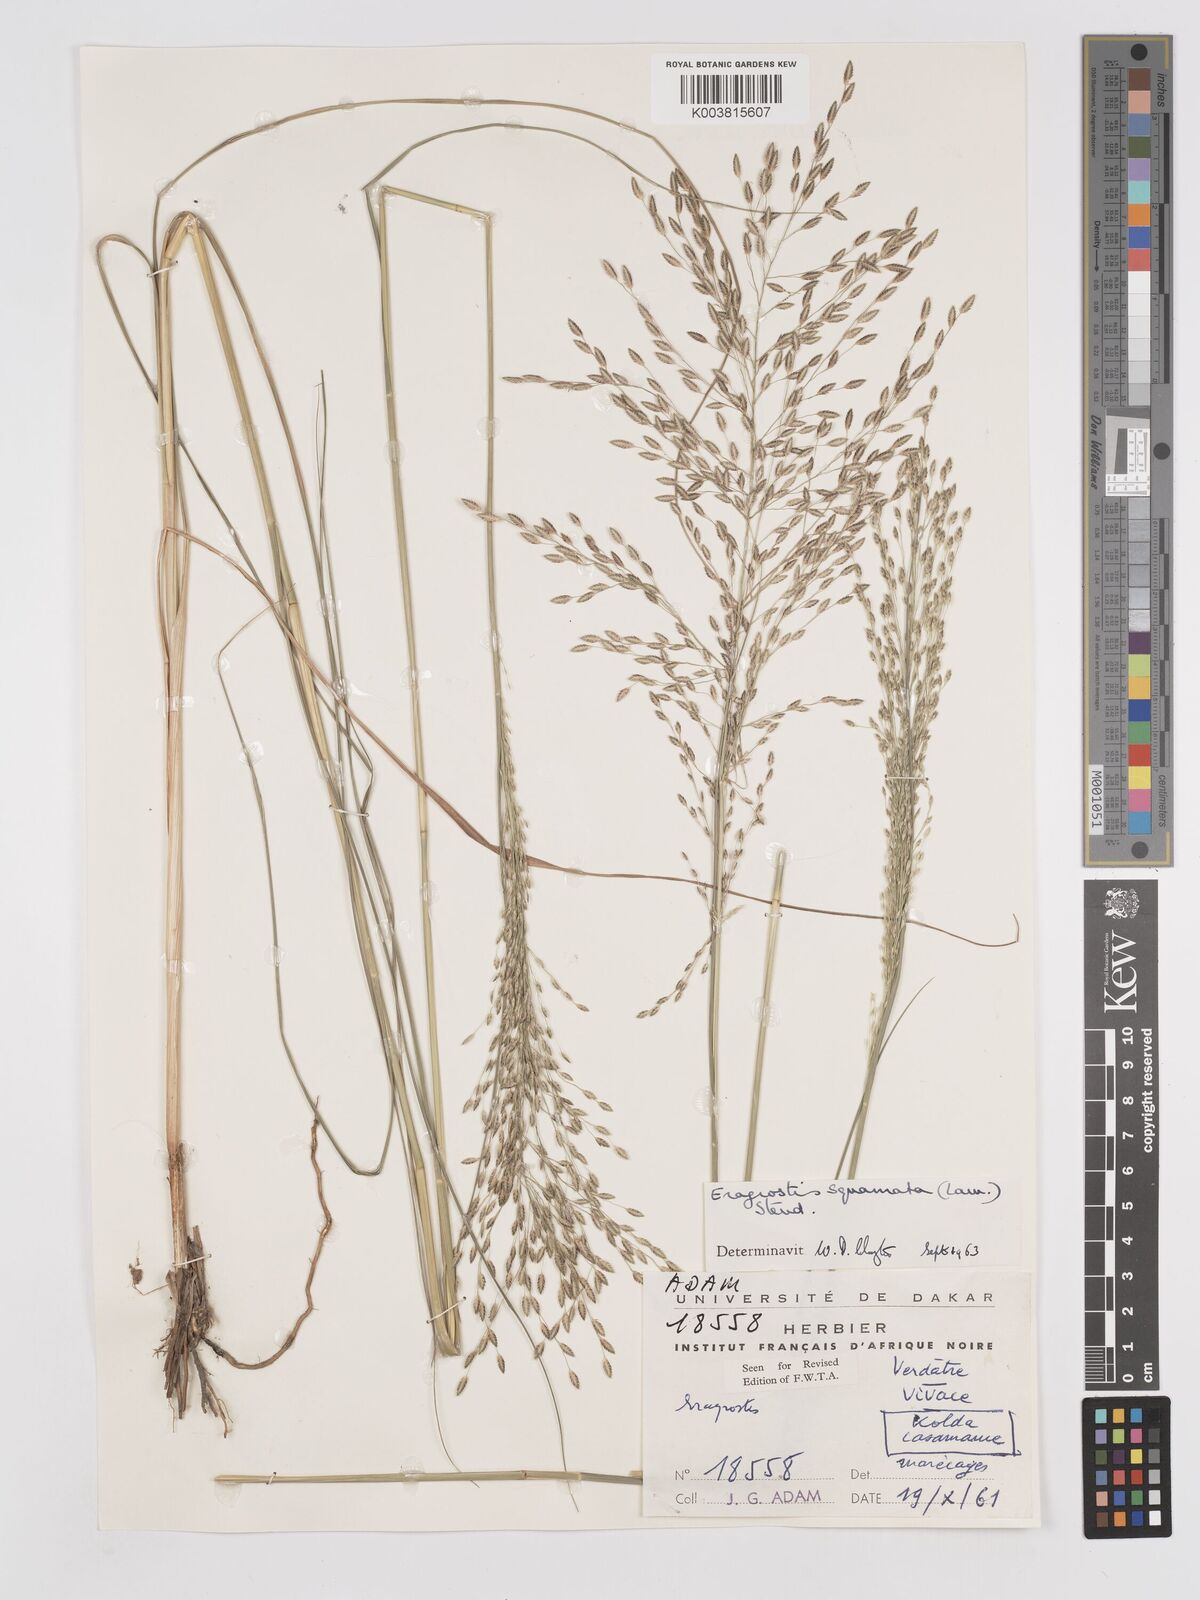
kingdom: Plantae
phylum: Tracheophyta
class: Liliopsida
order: Poales
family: Poaceae
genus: Eragrostis
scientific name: Eragrostis squamata
